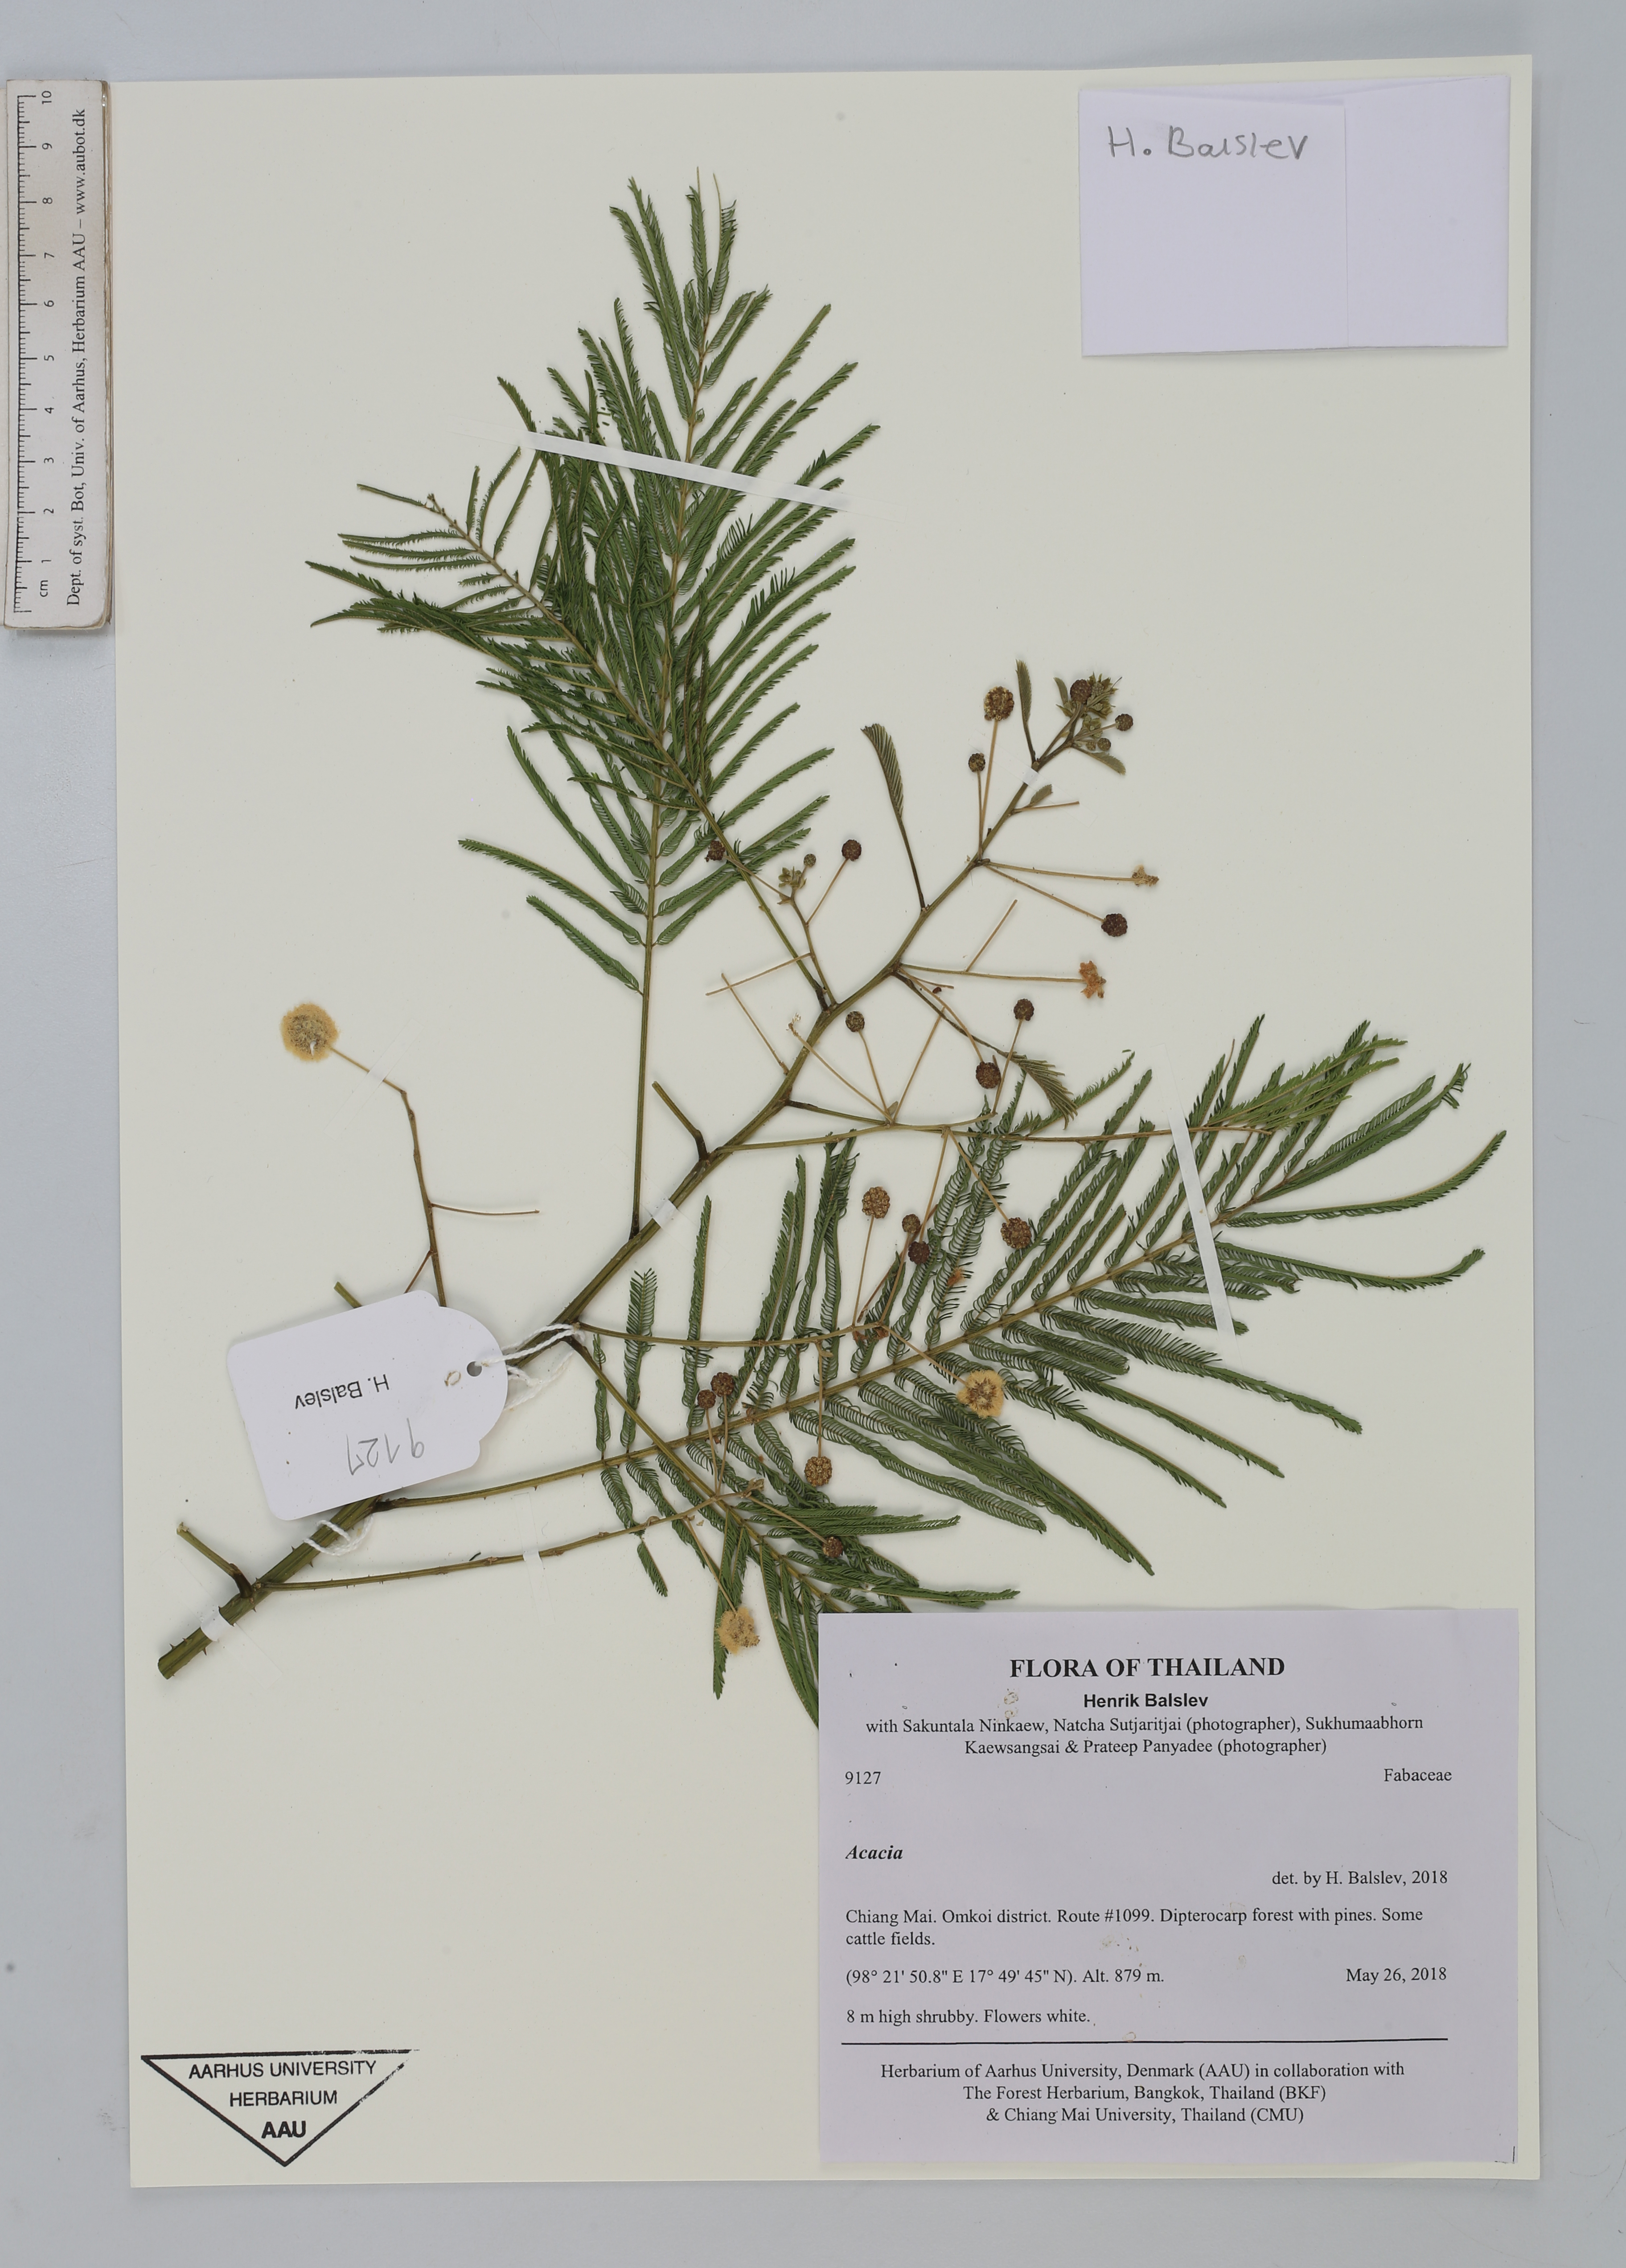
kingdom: Plantae
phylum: Tracheophyta
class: Magnoliopsida
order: Fabales
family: Fabaceae
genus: Acacia
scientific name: Acacia
